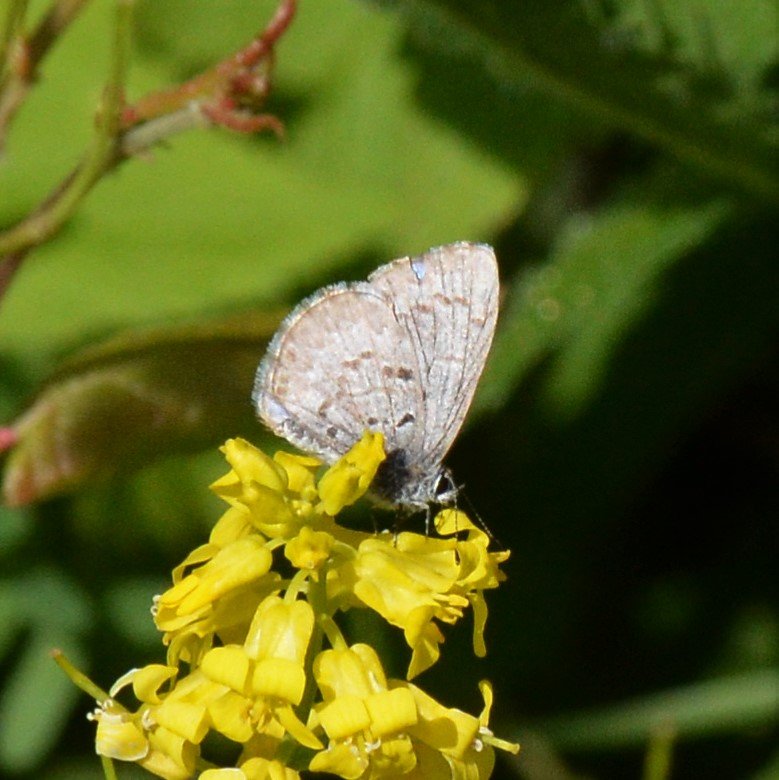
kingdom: Animalia
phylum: Arthropoda
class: Insecta
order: Lepidoptera
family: Lycaenidae
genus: Celastrina
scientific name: Celastrina lucia
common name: Northern Spring Azure
